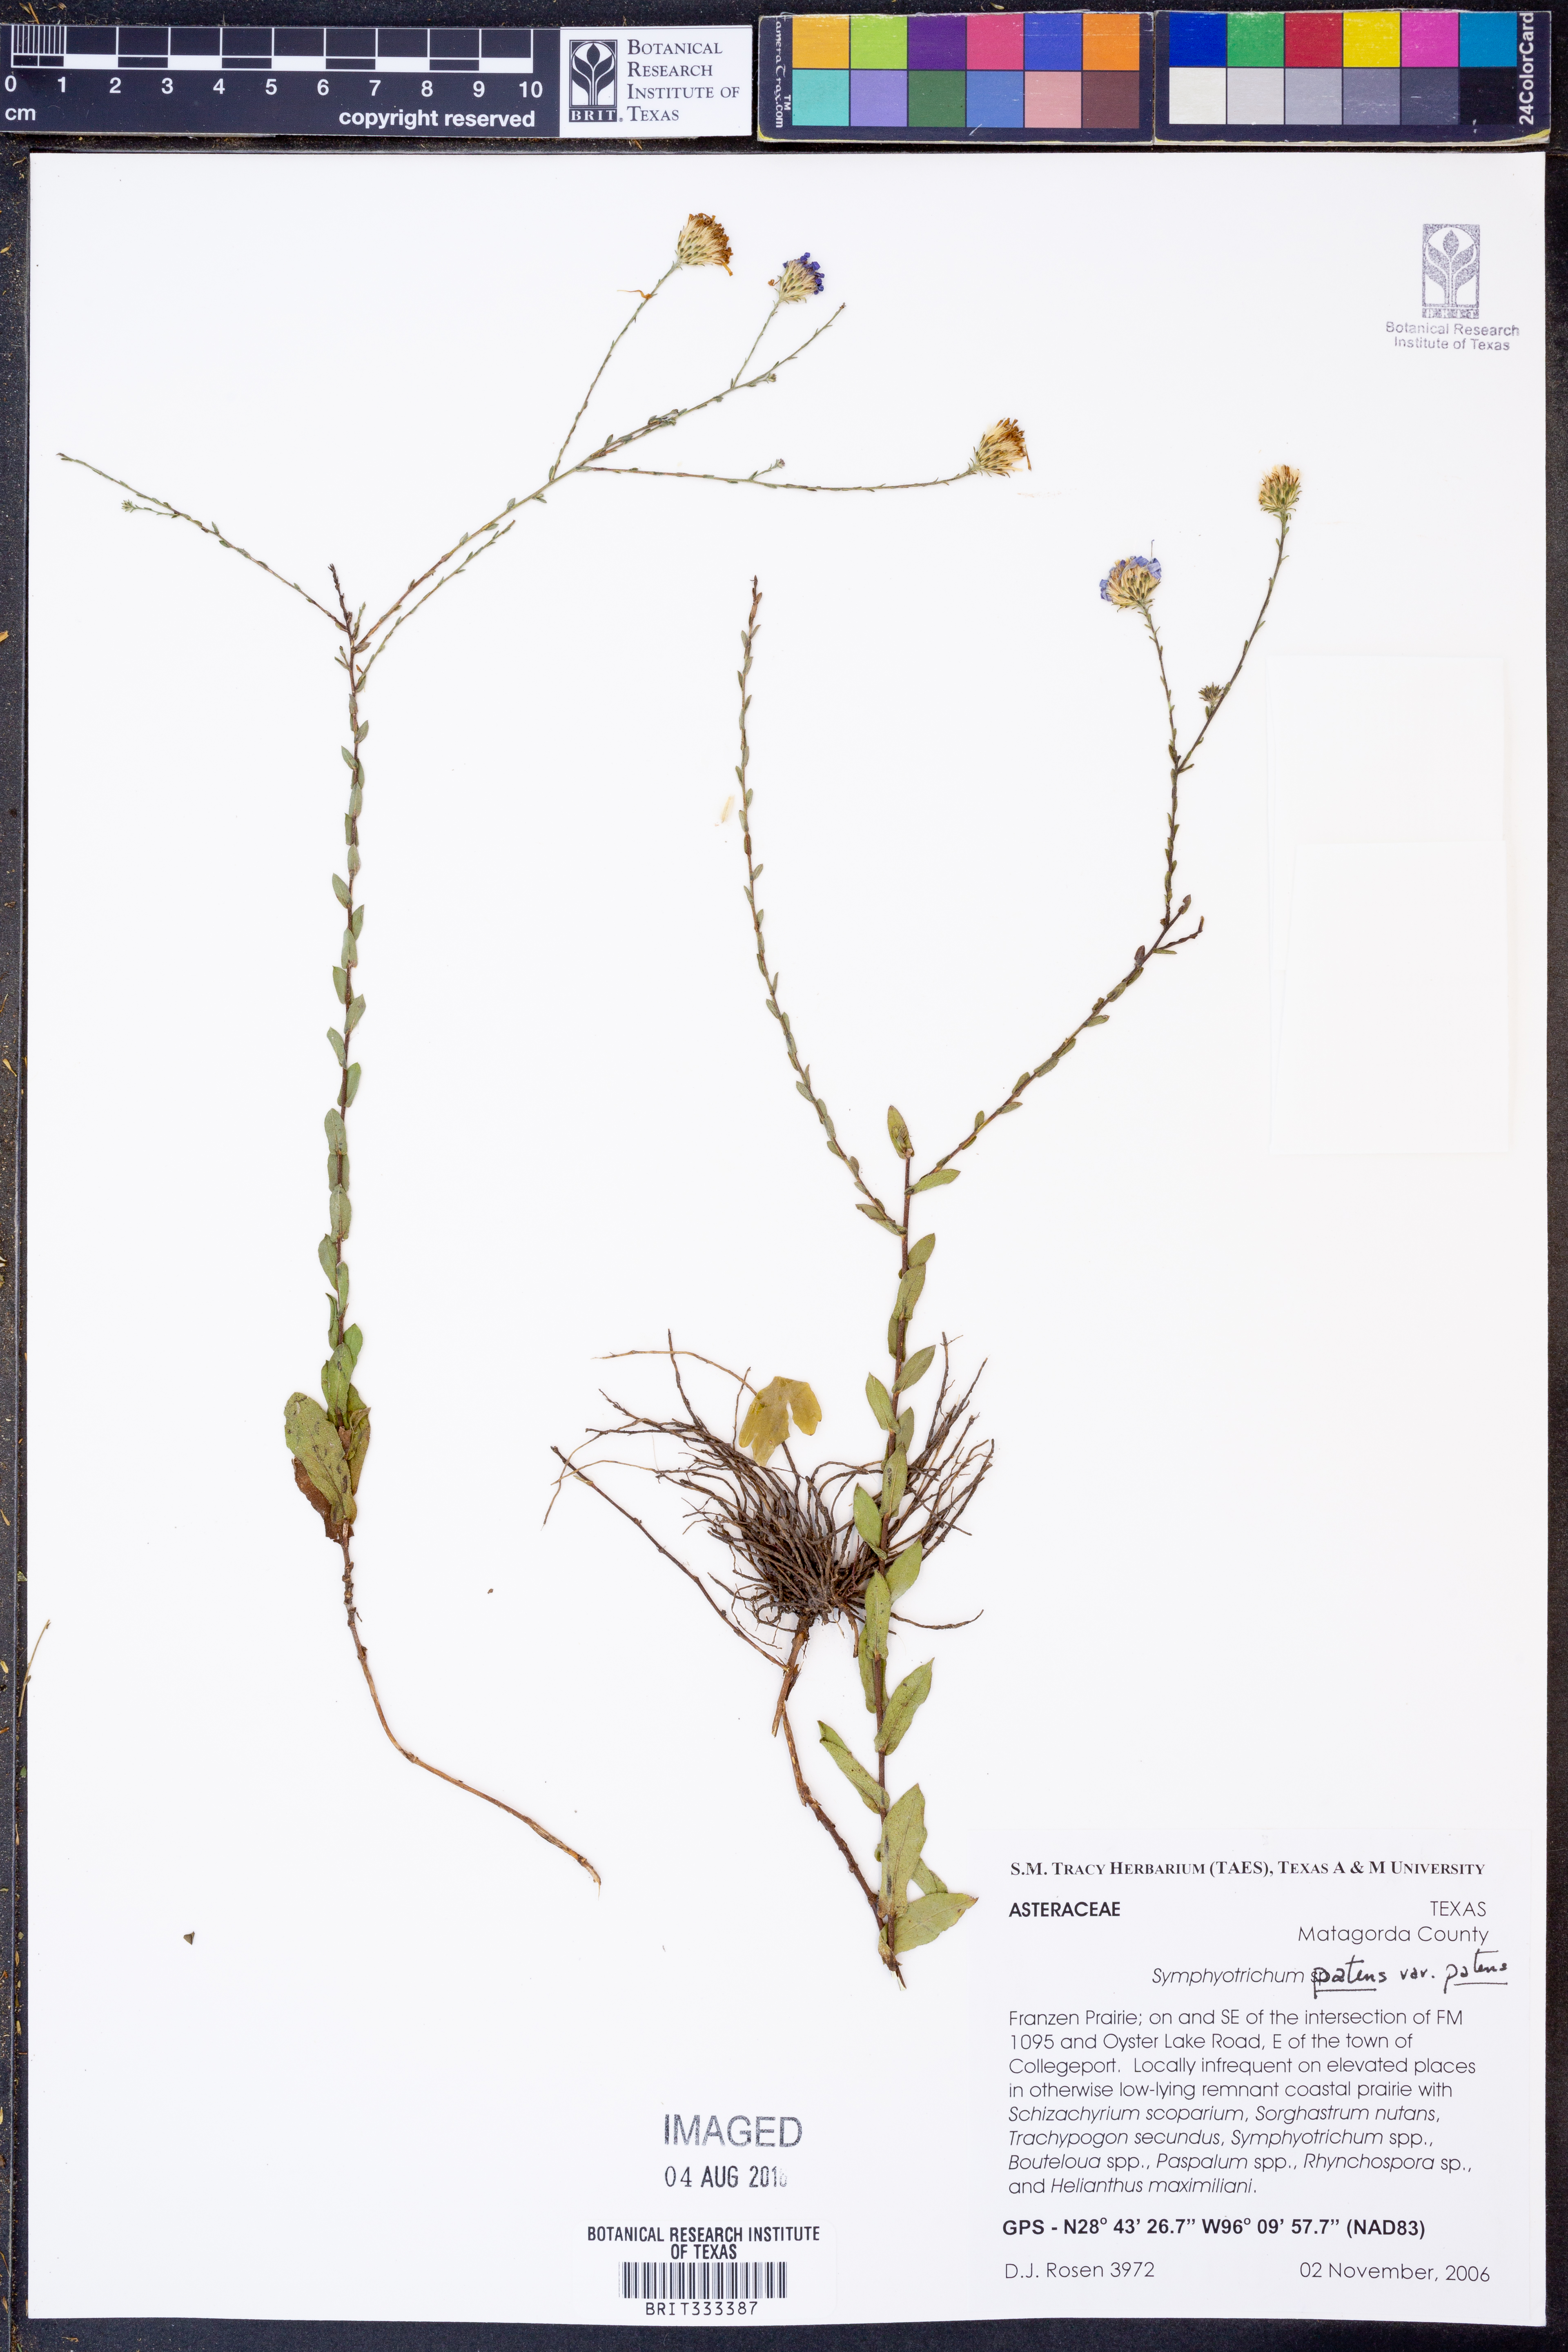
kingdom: Plantae
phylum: Tracheophyta
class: Magnoliopsida
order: Asterales
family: Asteraceae
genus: Symphyotrichum
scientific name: Symphyotrichum patens
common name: Late purple aster
